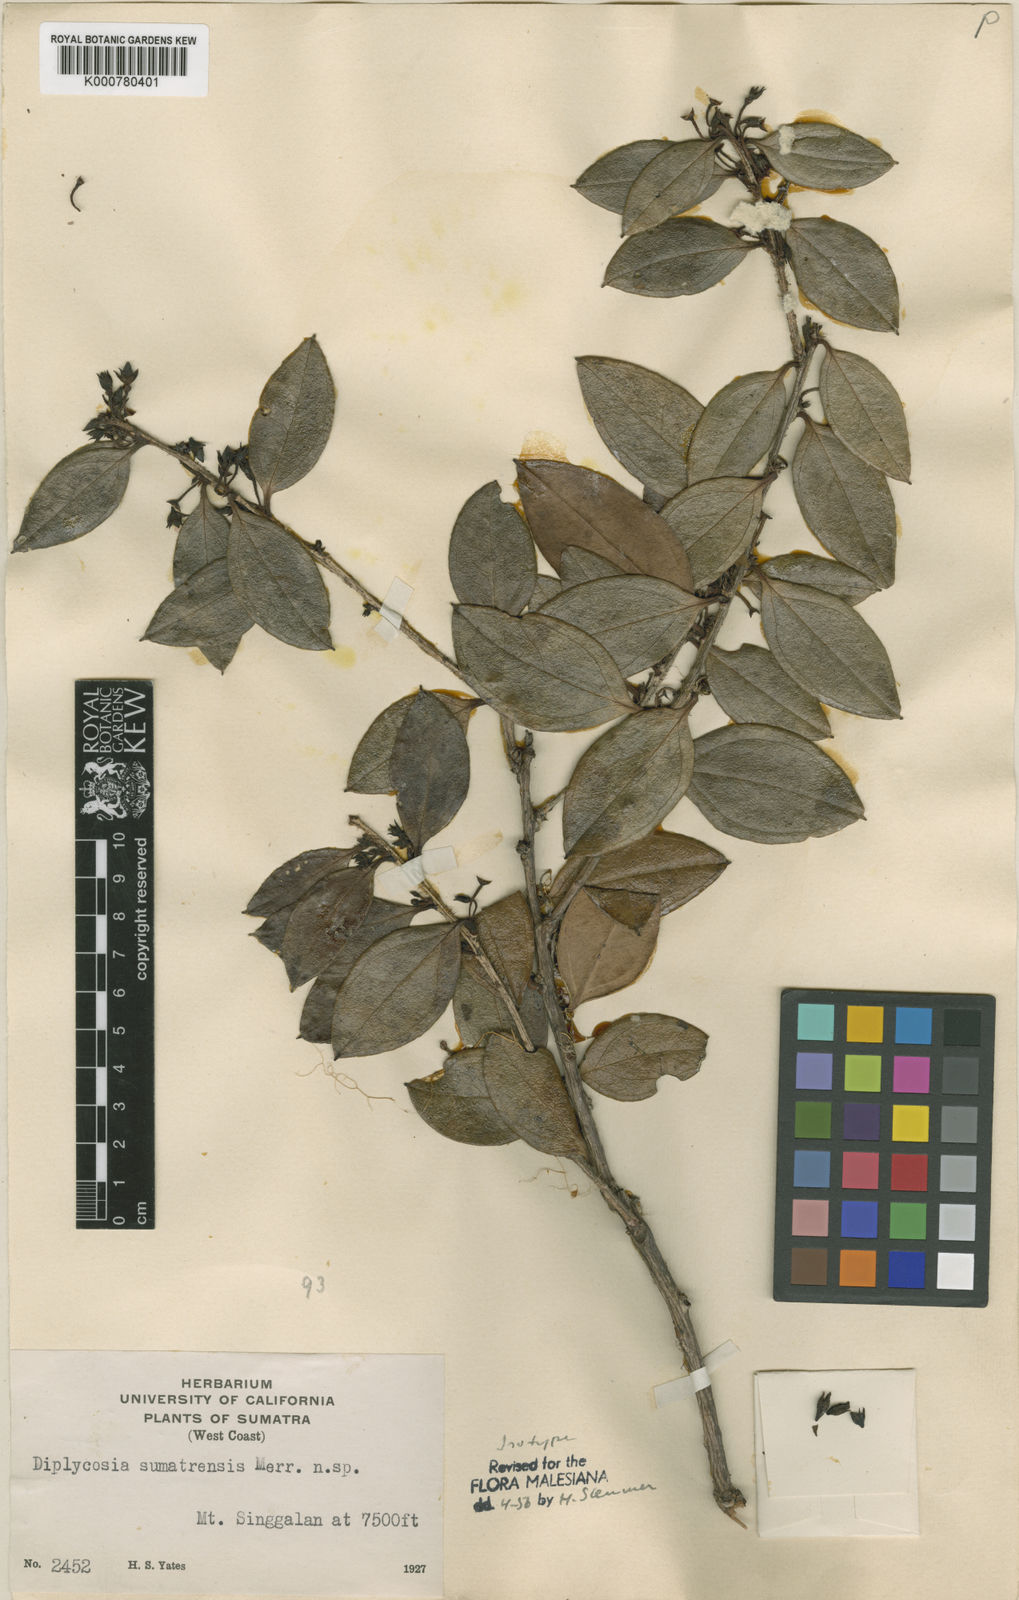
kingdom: Plantae
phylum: Tracheophyta
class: Magnoliopsida
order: Ericales
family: Ericaceae
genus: Gaultheria
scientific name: Gaultheria sumatrensis
